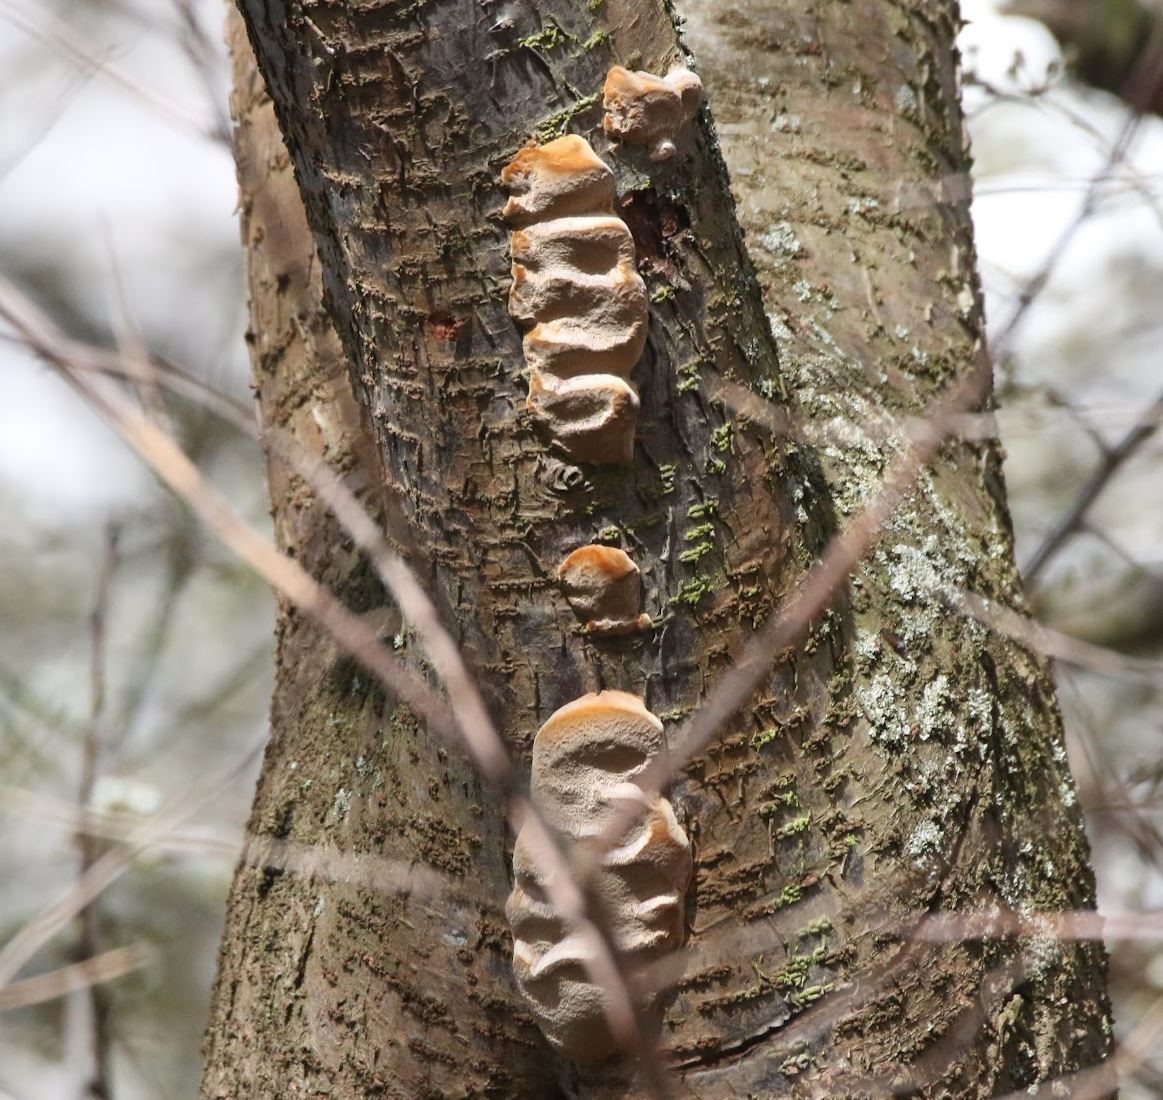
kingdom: Fungi
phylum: Basidiomycota
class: Agaricomycetes
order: Hymenochaetales
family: Hymenochaetaceae
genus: Phellinus
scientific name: Phellinus pomaceus
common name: blomme-ildporesvamp
